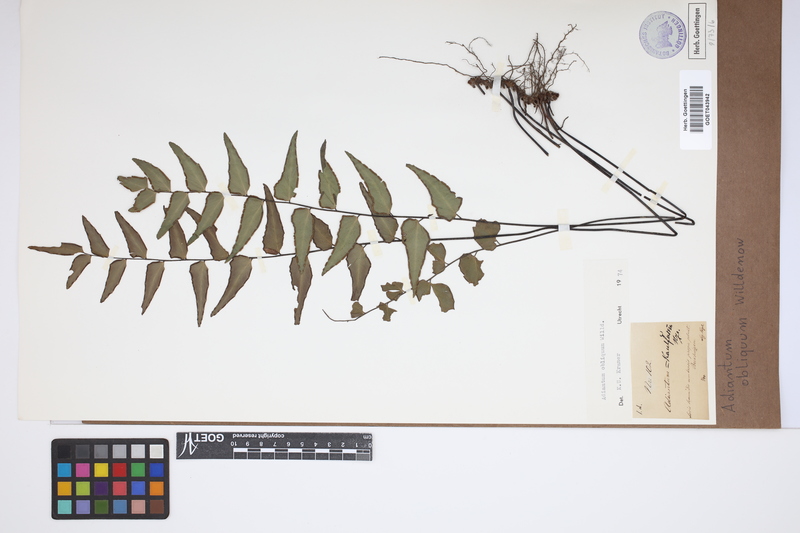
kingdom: Plantae
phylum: Tracheophyta
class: Polypodiopsida
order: Polypodiales
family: Pteridaceae
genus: Adiantum
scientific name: Adiantum obliquum
